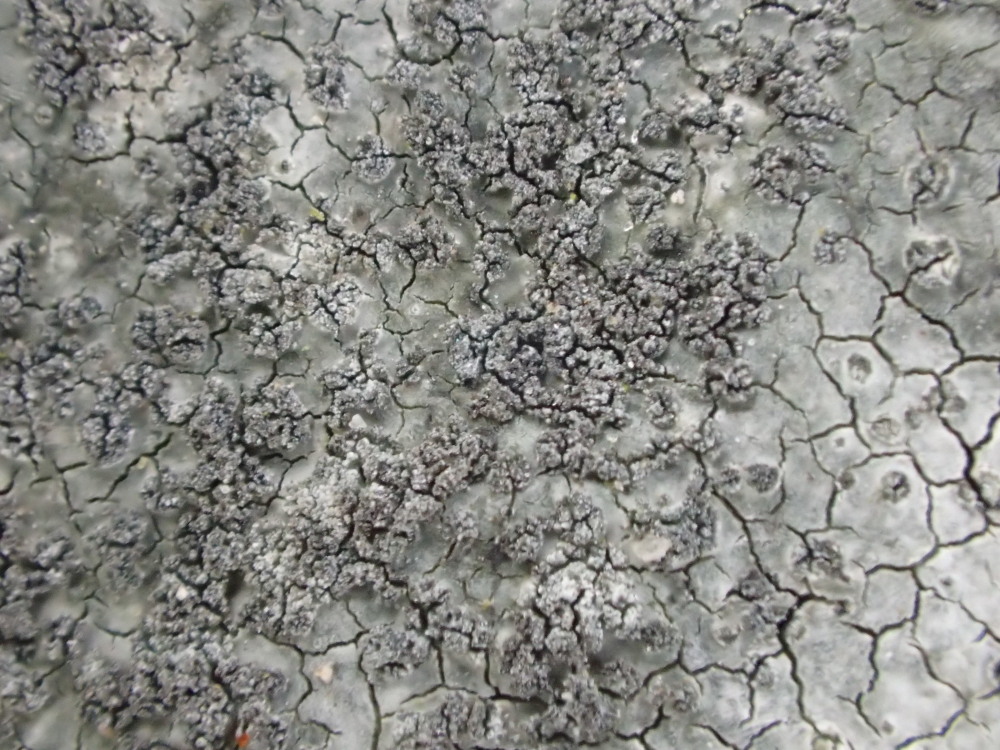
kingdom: Fungi
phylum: Ascomycota
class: Lecanoromycetes
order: Lecideales
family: Lecideaceae
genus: Porpidia
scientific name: Porpidia tuberculosa
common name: broget bredskivelav
